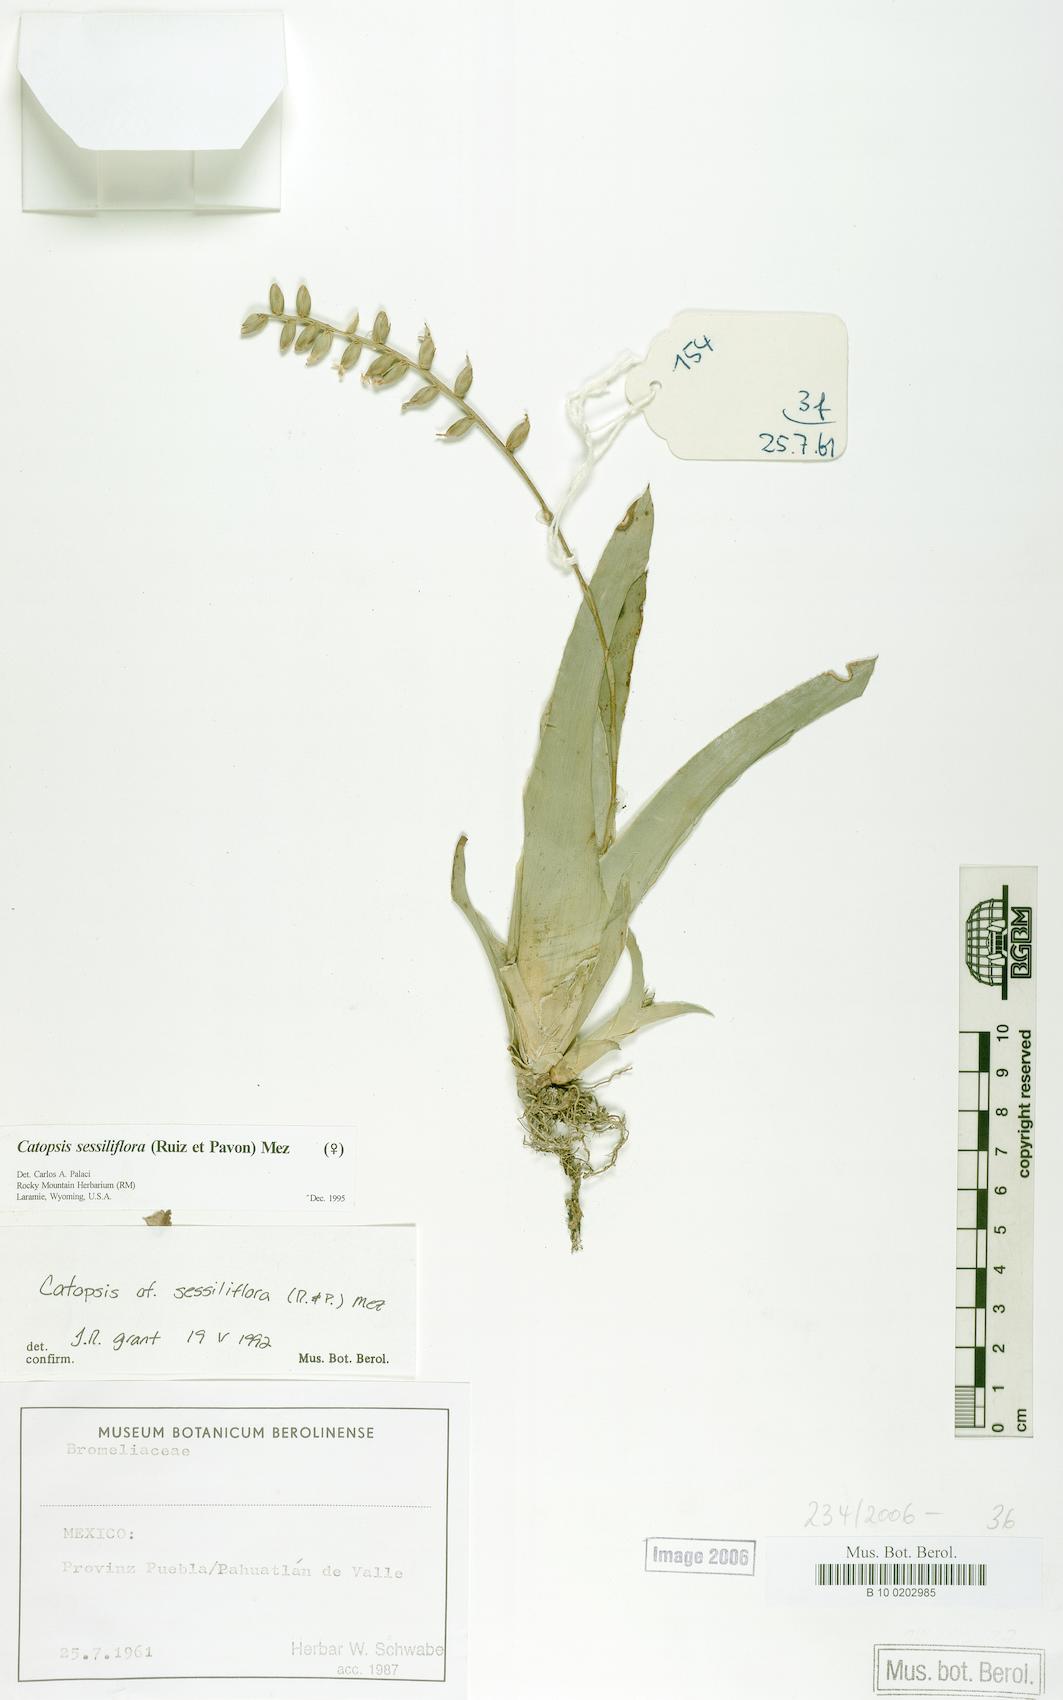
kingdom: Plantae
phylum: Tracheophyta
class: Liliopsida
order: Poales
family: Bromeliaceae
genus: Catopsis
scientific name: Catopsis
